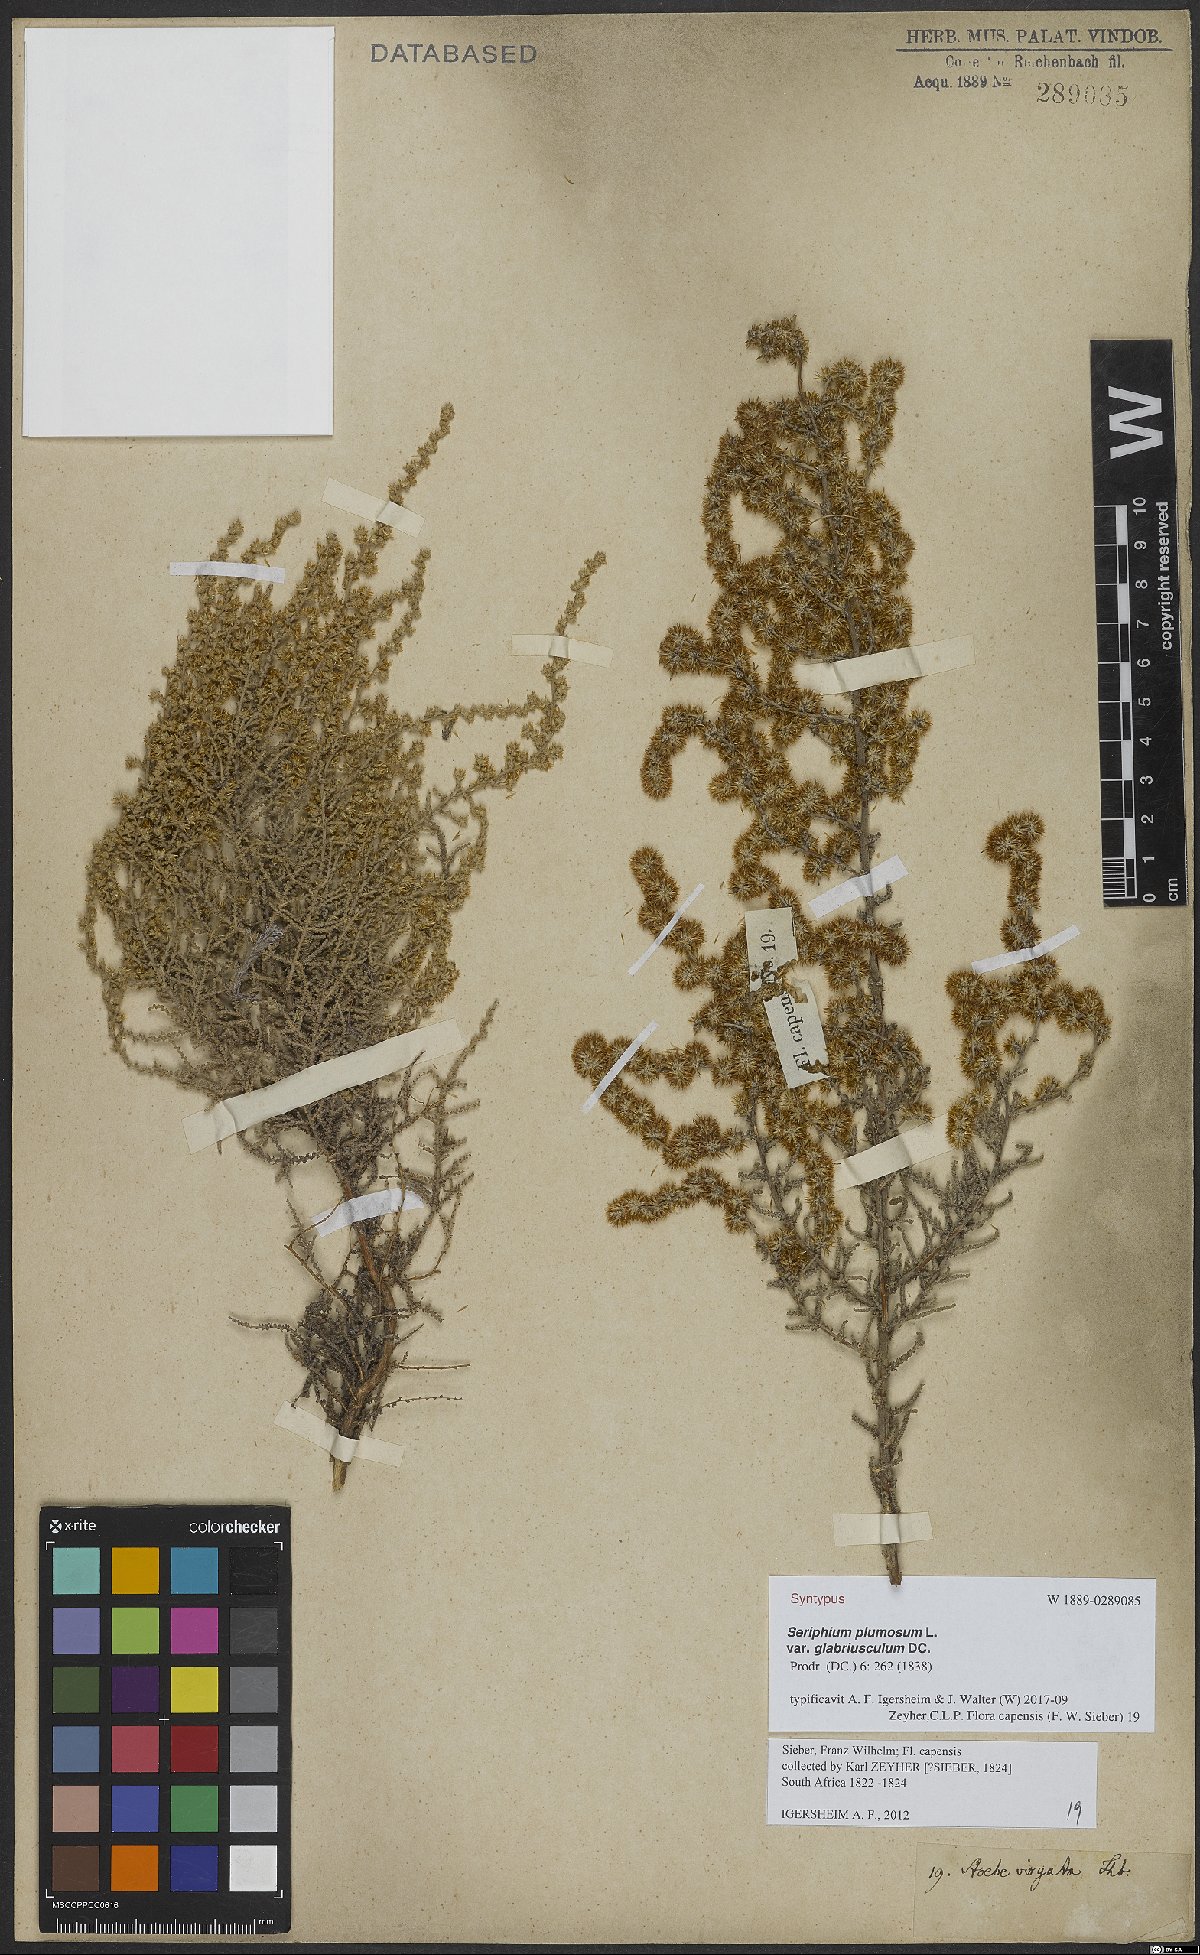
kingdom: Plantae
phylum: Tracheophyta
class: Magnoliopsida
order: Asterales
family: Asteraceae
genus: Seriphium
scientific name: Seriphium plumosum
